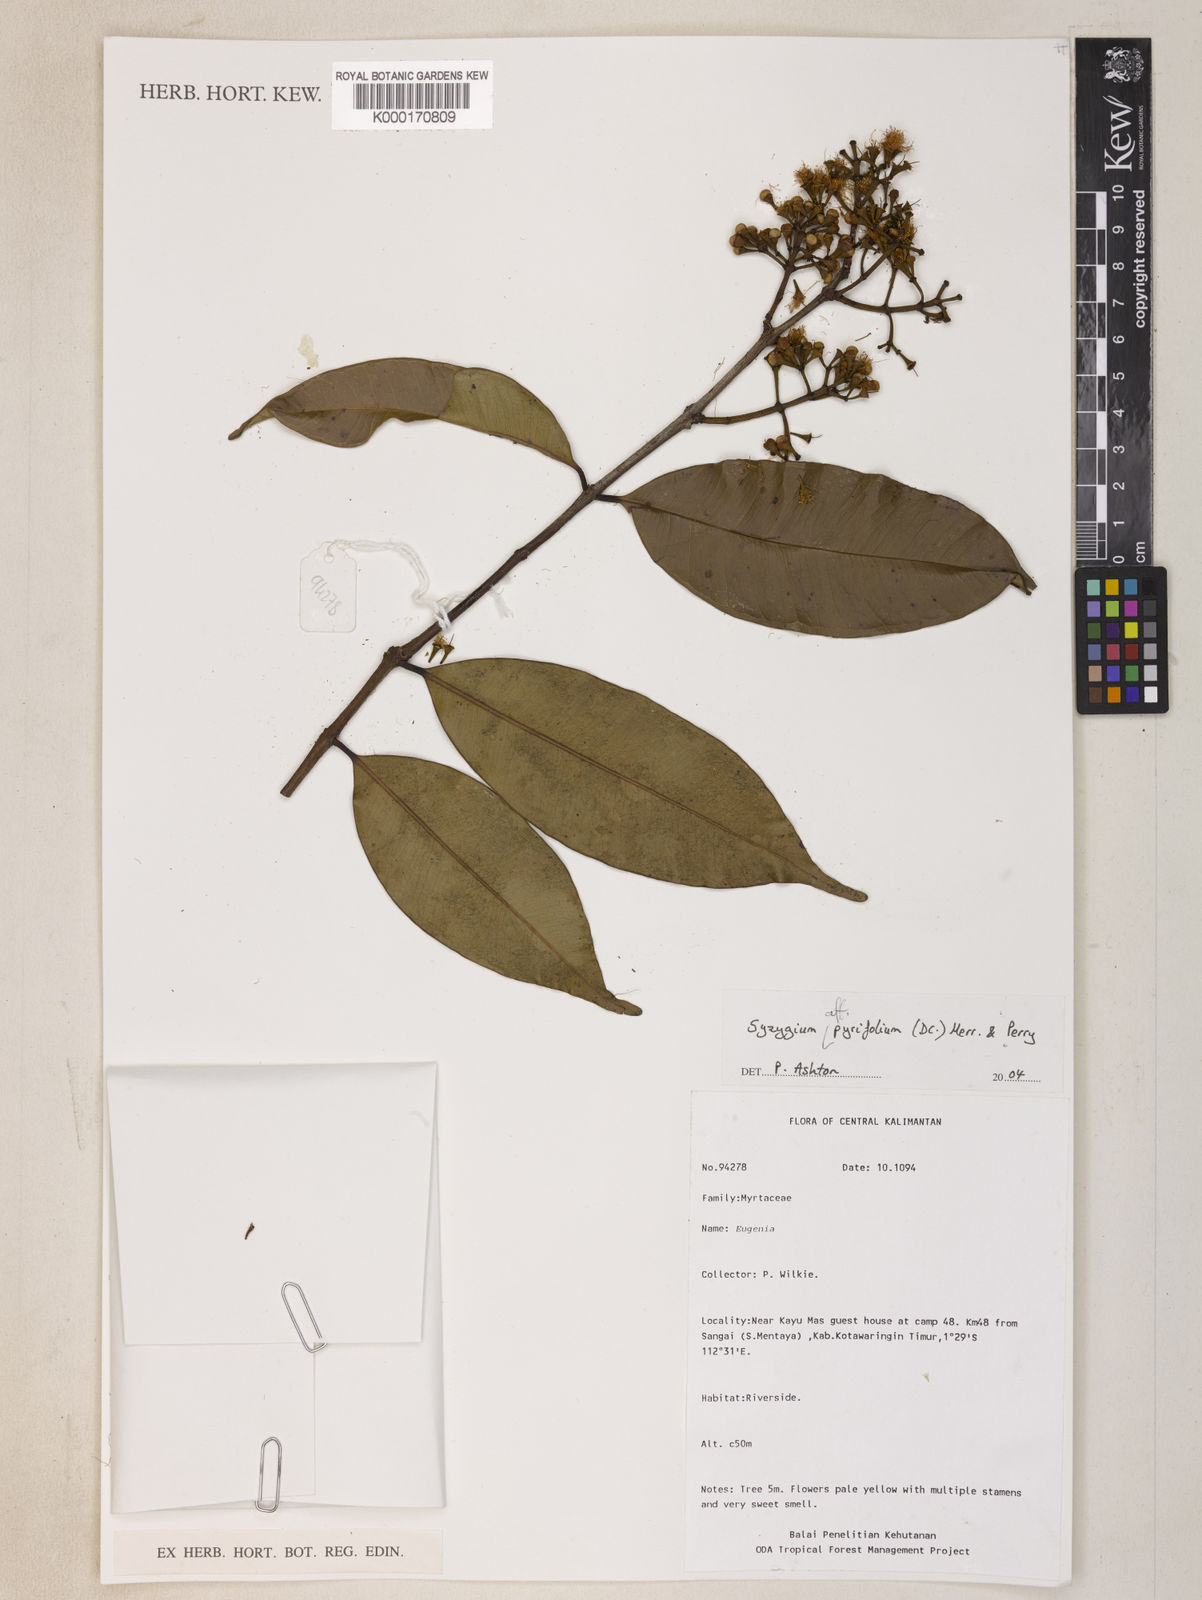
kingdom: Plantae
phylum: Tracheophyta
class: Magnoliopsida
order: Myrtales
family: Myrtaceae
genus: Syzygium
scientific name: Syzygium
